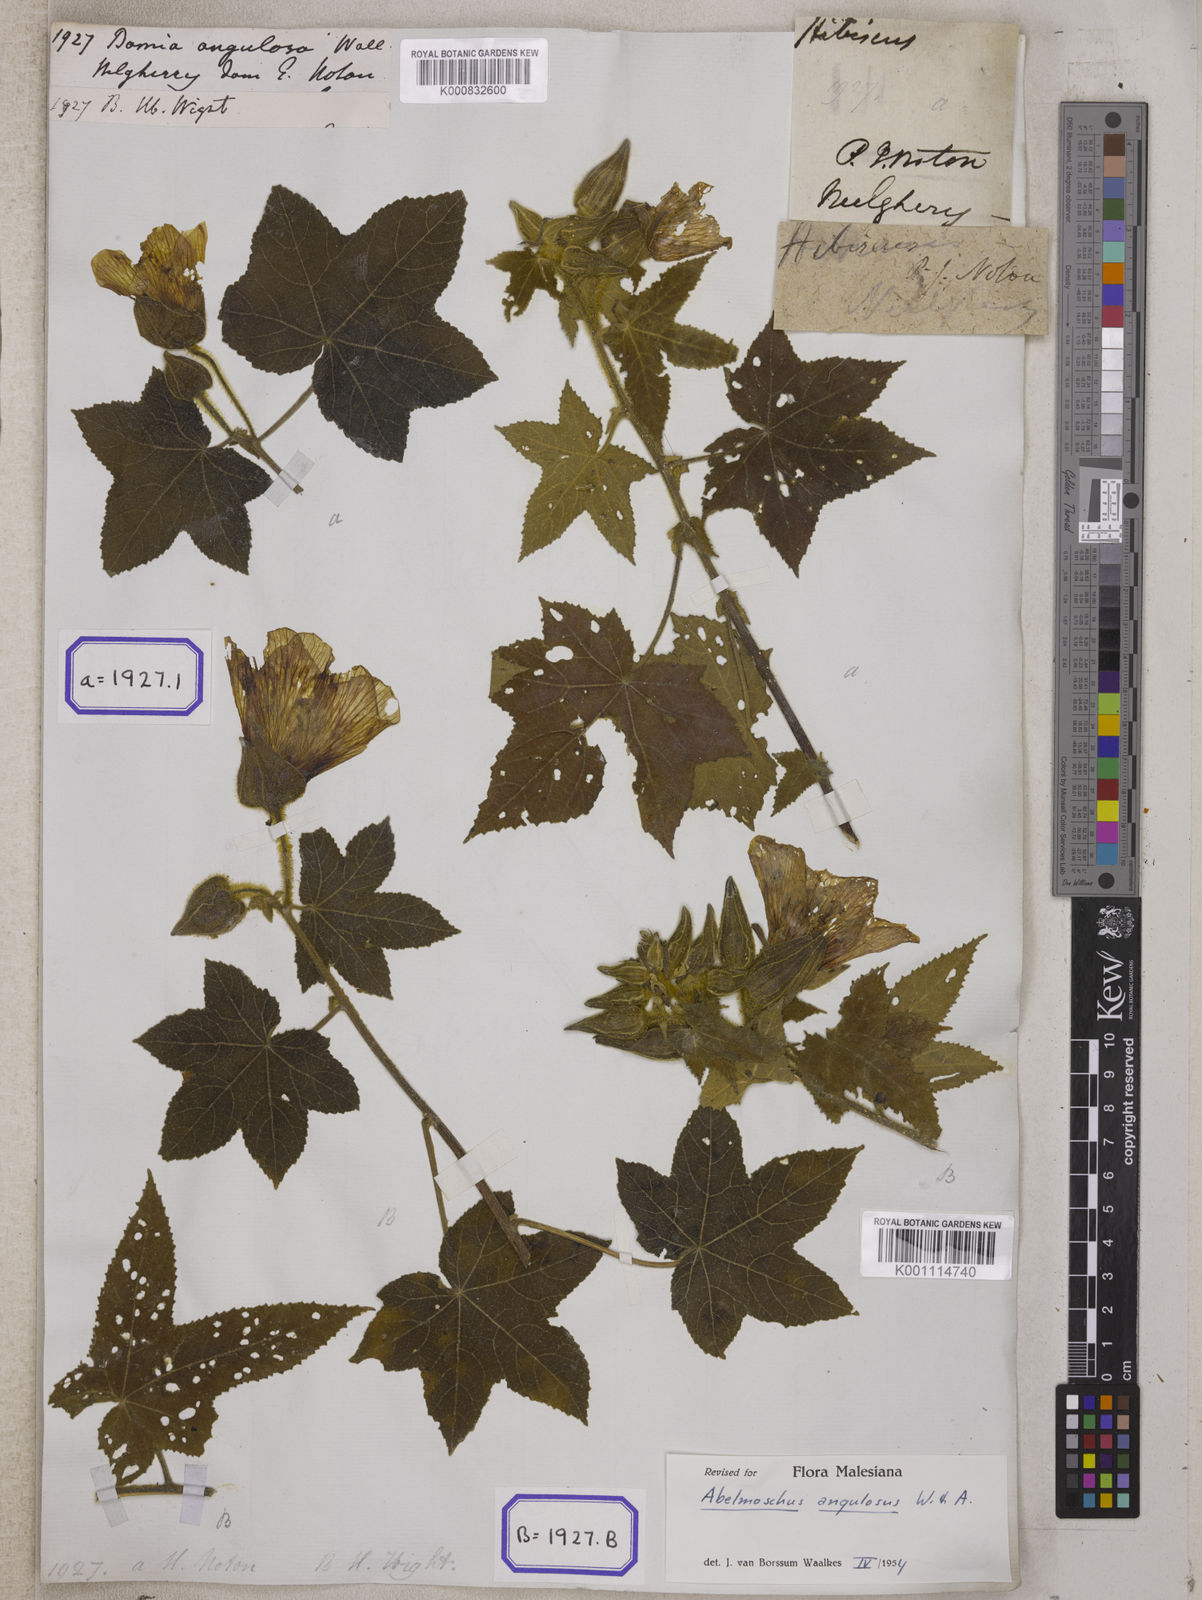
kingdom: Plantae
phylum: Tracheophyta
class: Magnoliopsida
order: Malvales
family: Malvaceae
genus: Bamia
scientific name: Bamia
